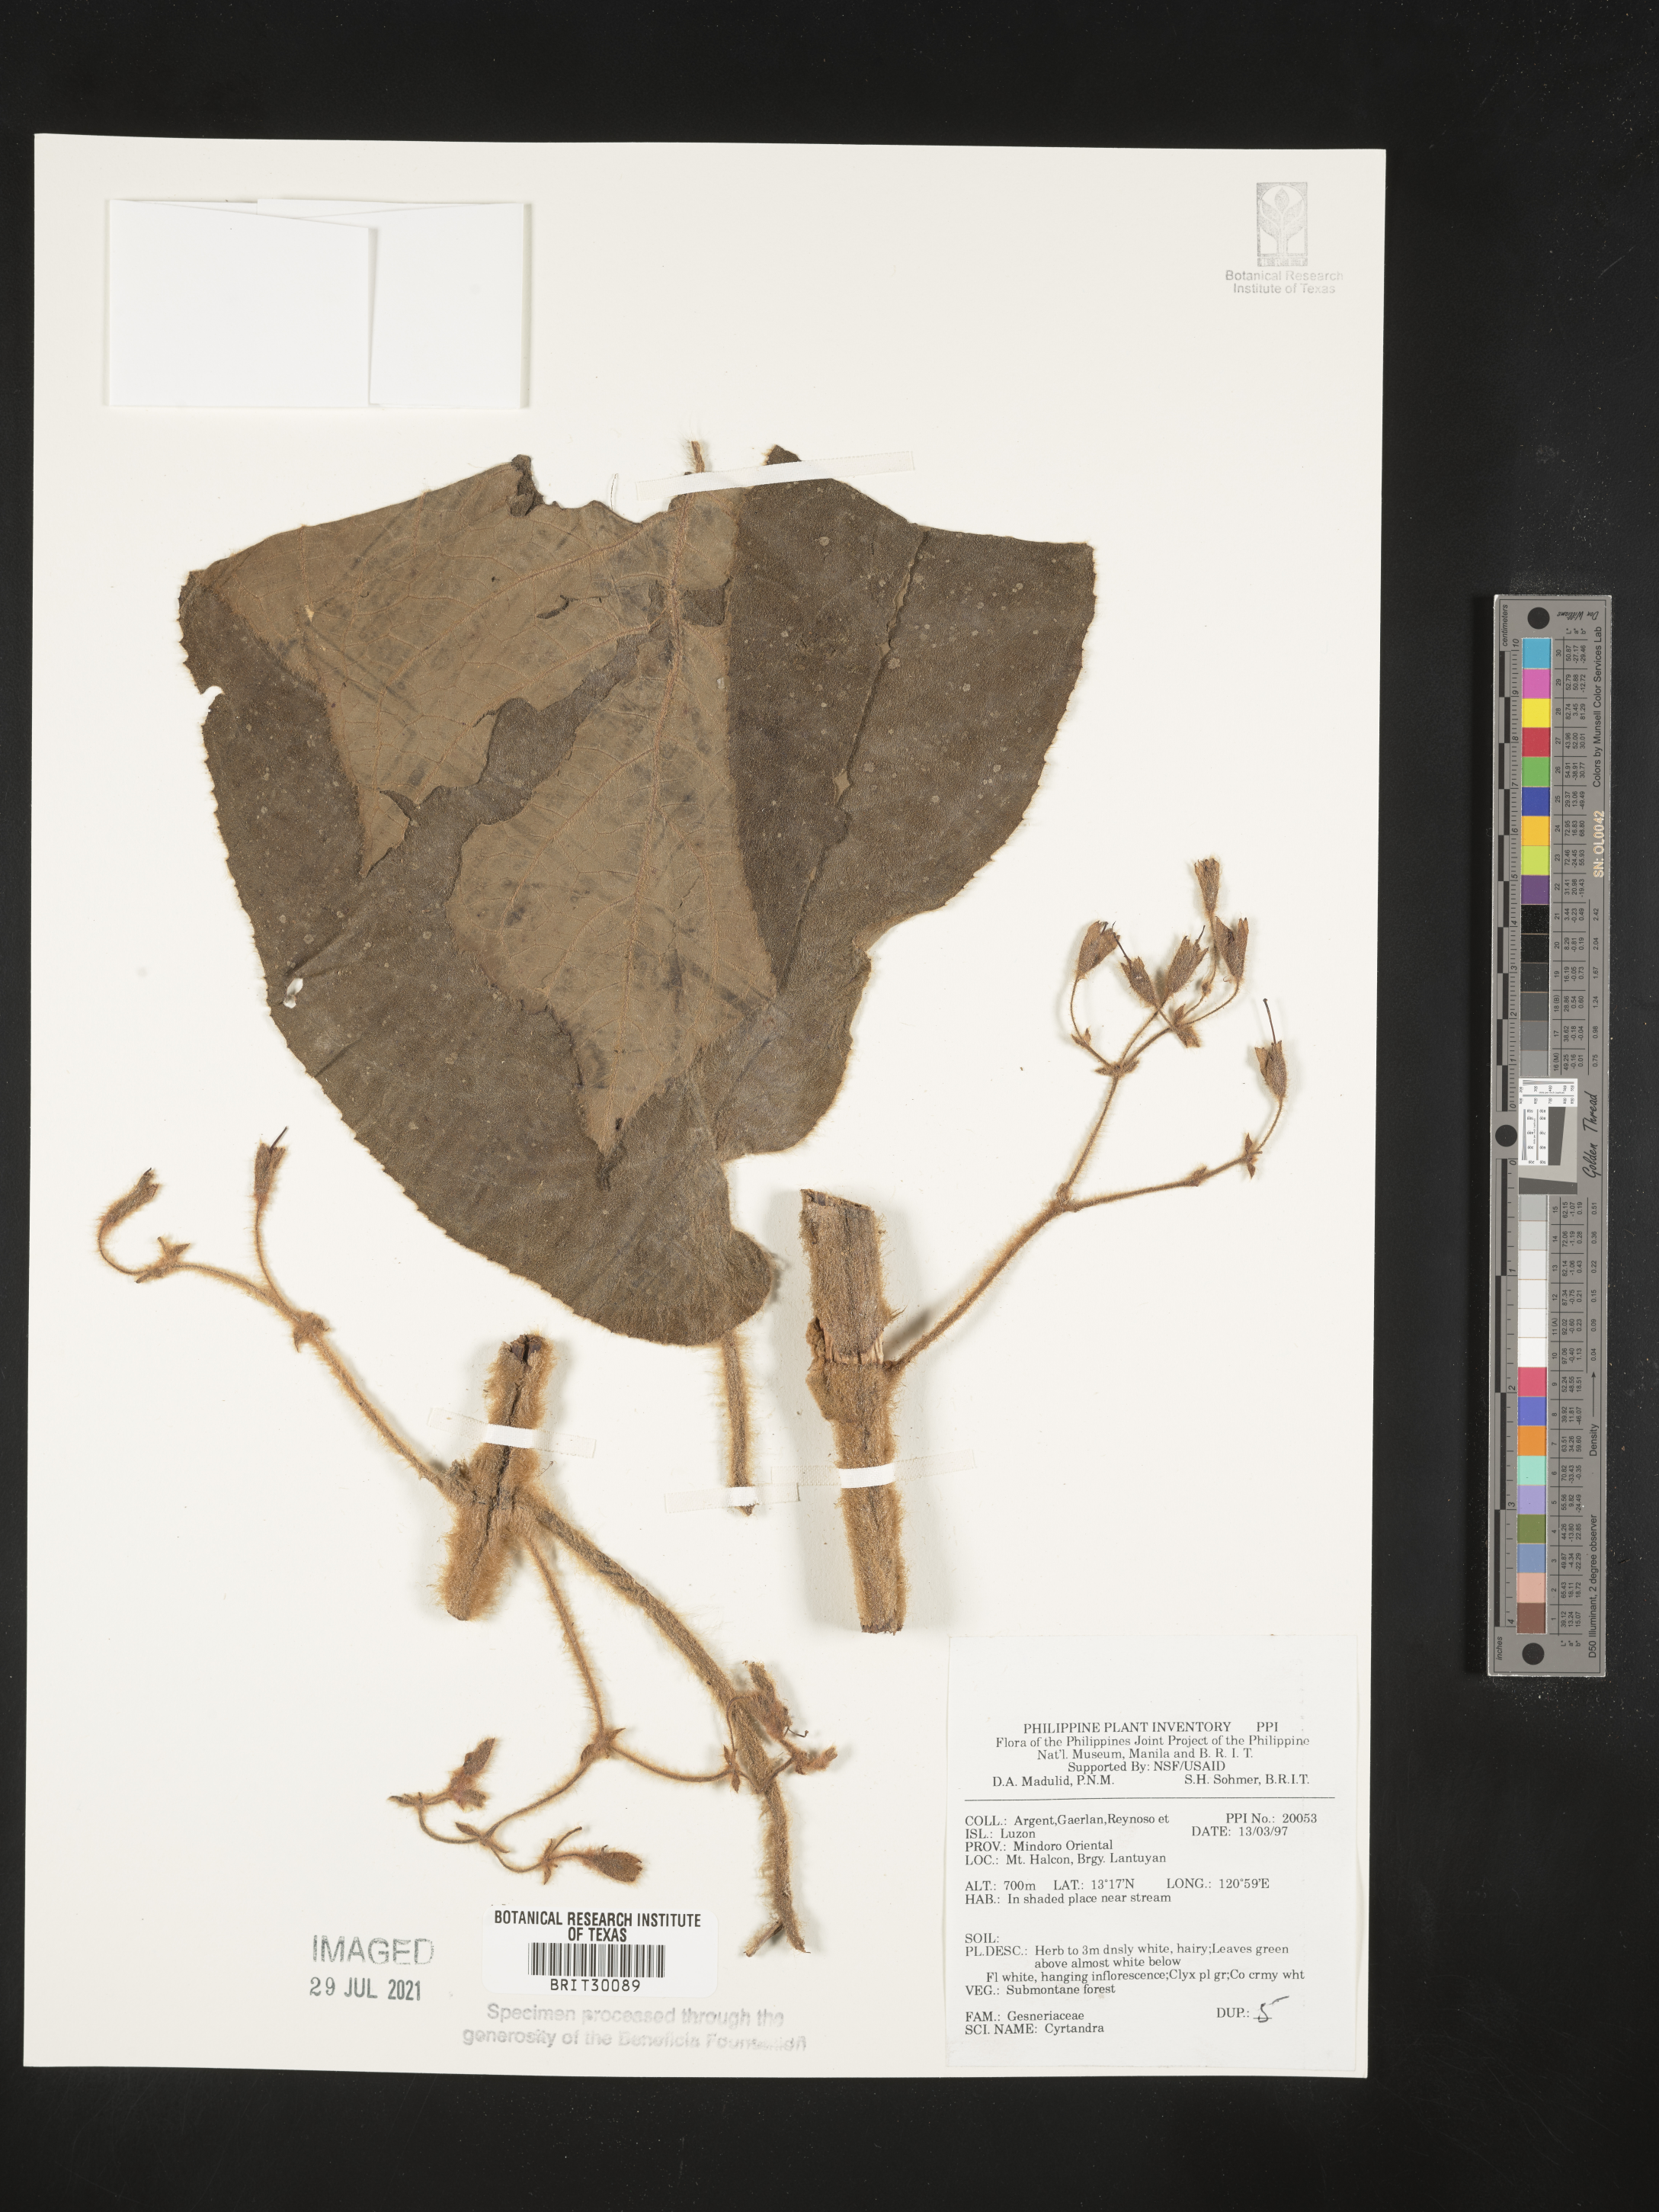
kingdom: Plantae
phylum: Tracheophyta
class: Magnoliopsida
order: Lamiales
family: Gesneriaceae
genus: Cyrtandra
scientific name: Cyrtandra
